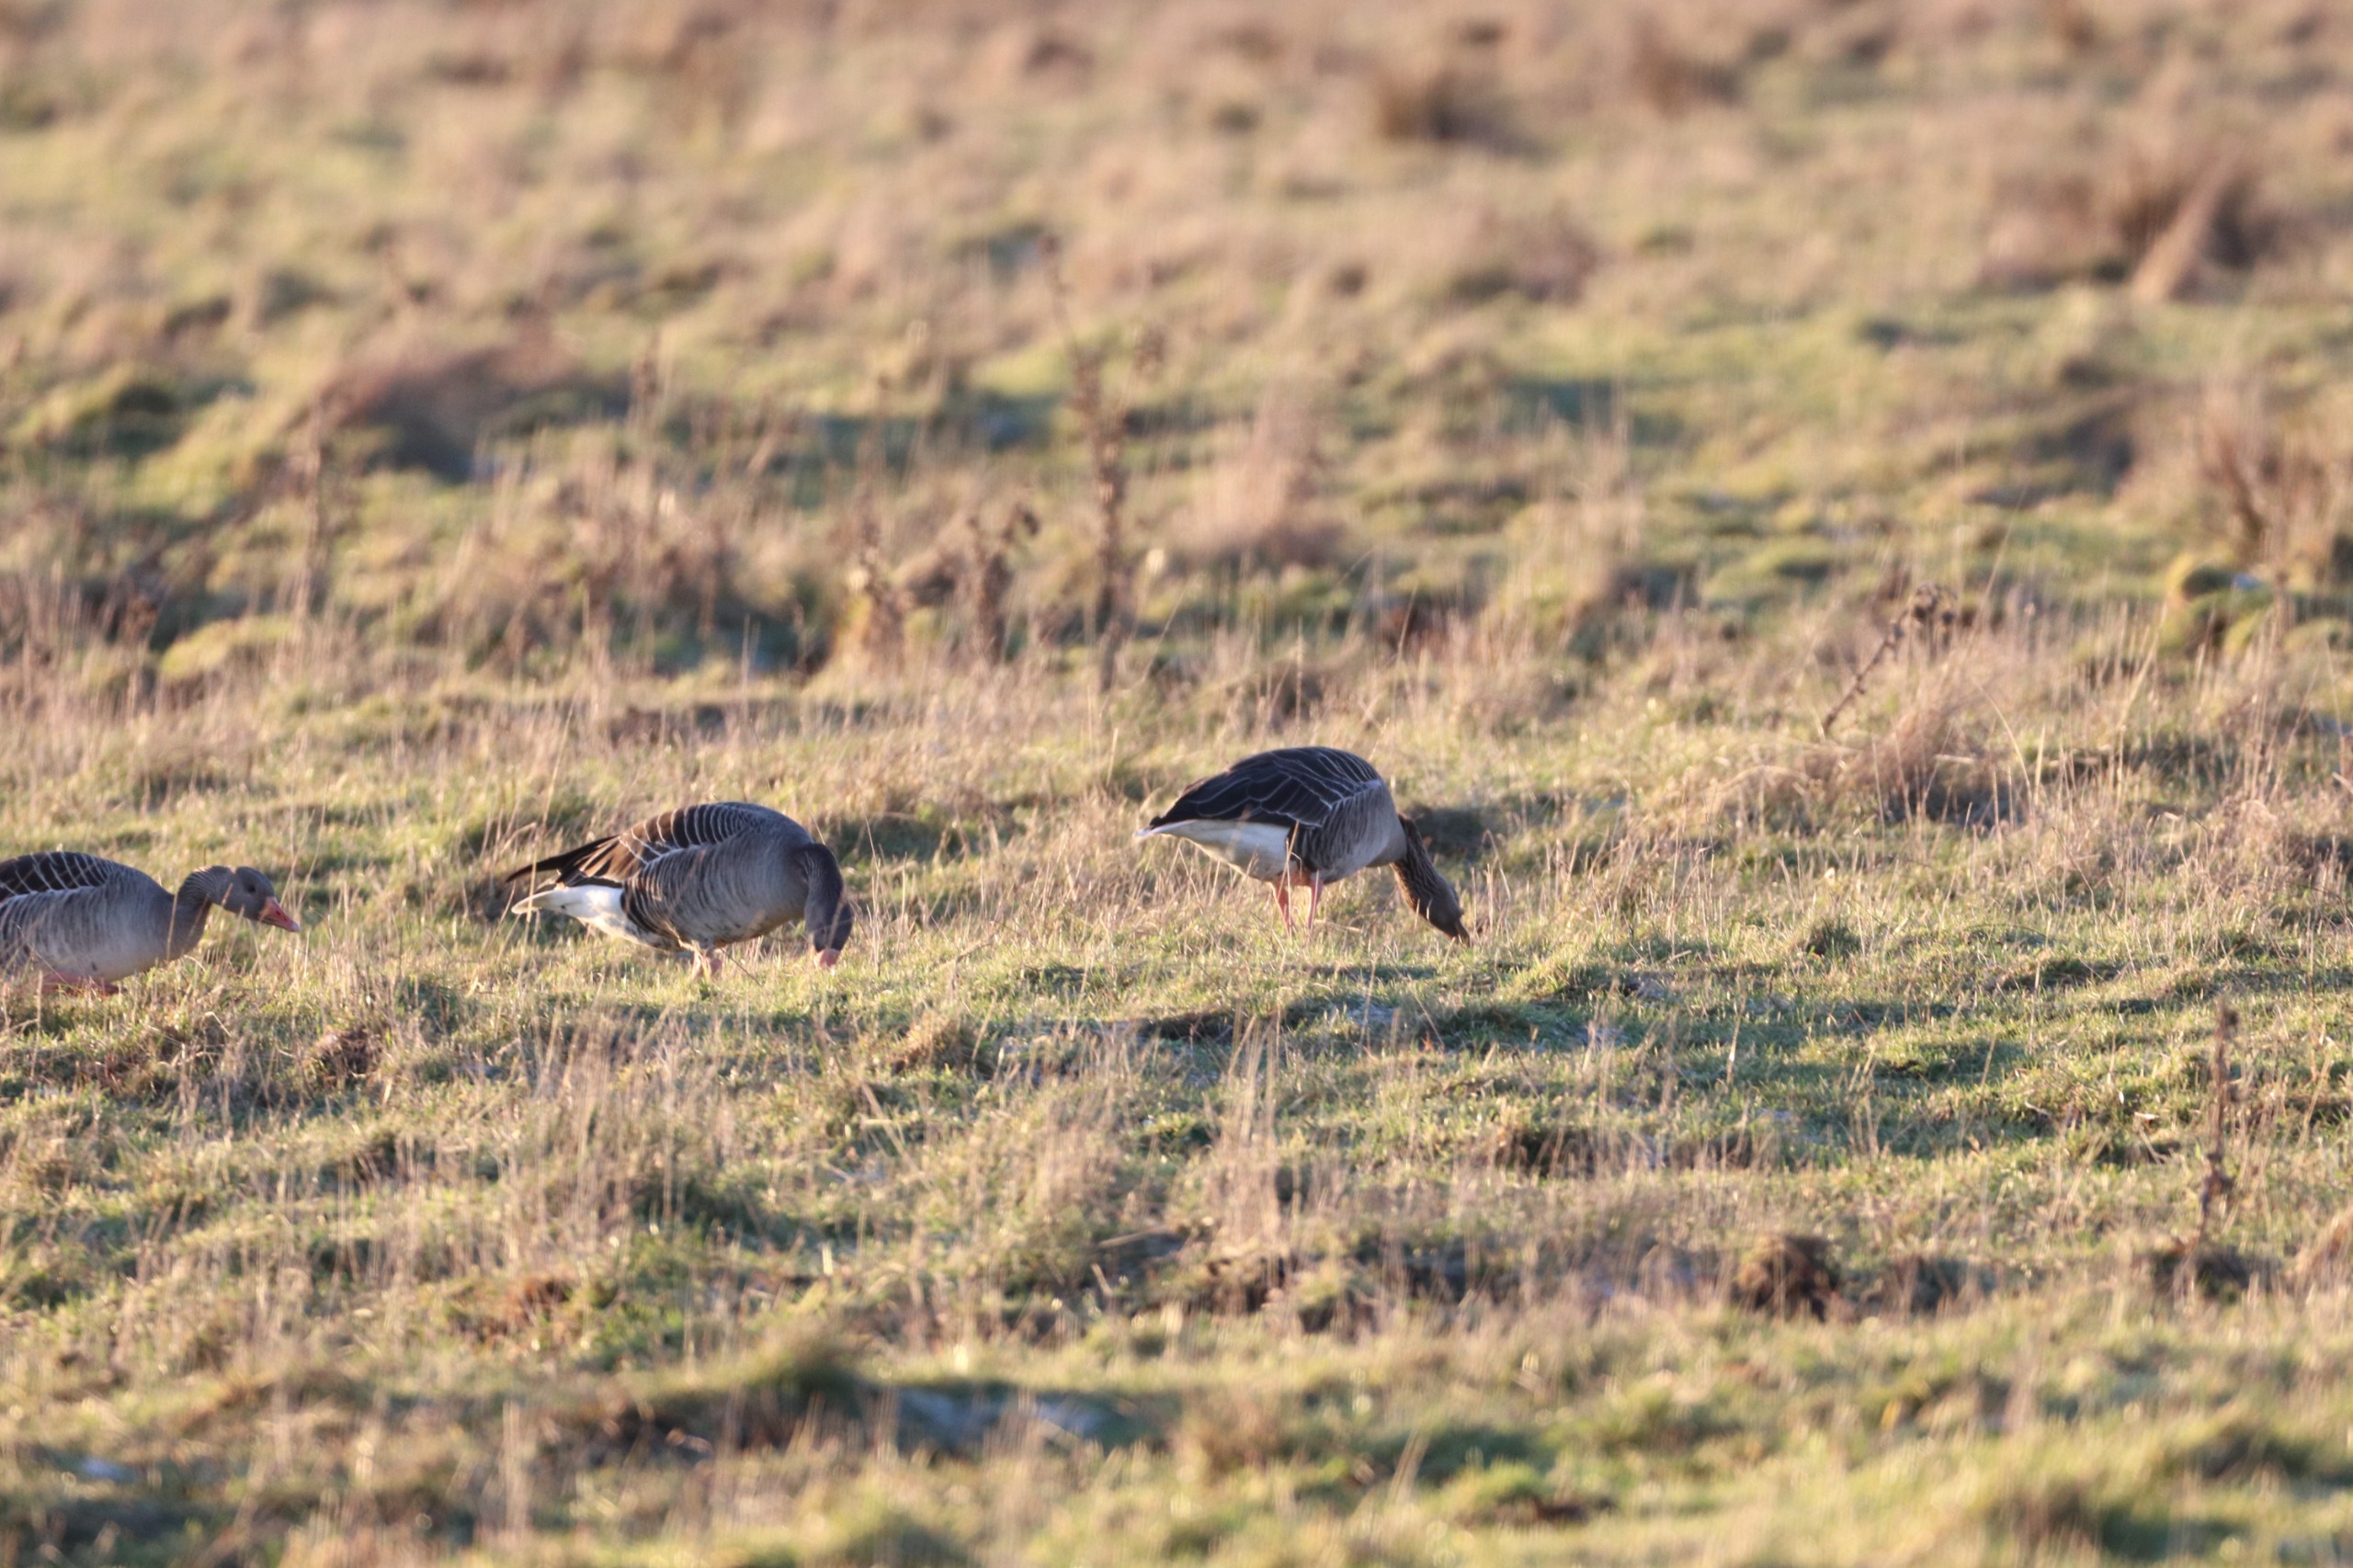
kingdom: Animalia
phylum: Chordata
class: Aves
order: Anseriformes
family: Anatidae
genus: Anser
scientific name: Anser anser
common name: Grågås
